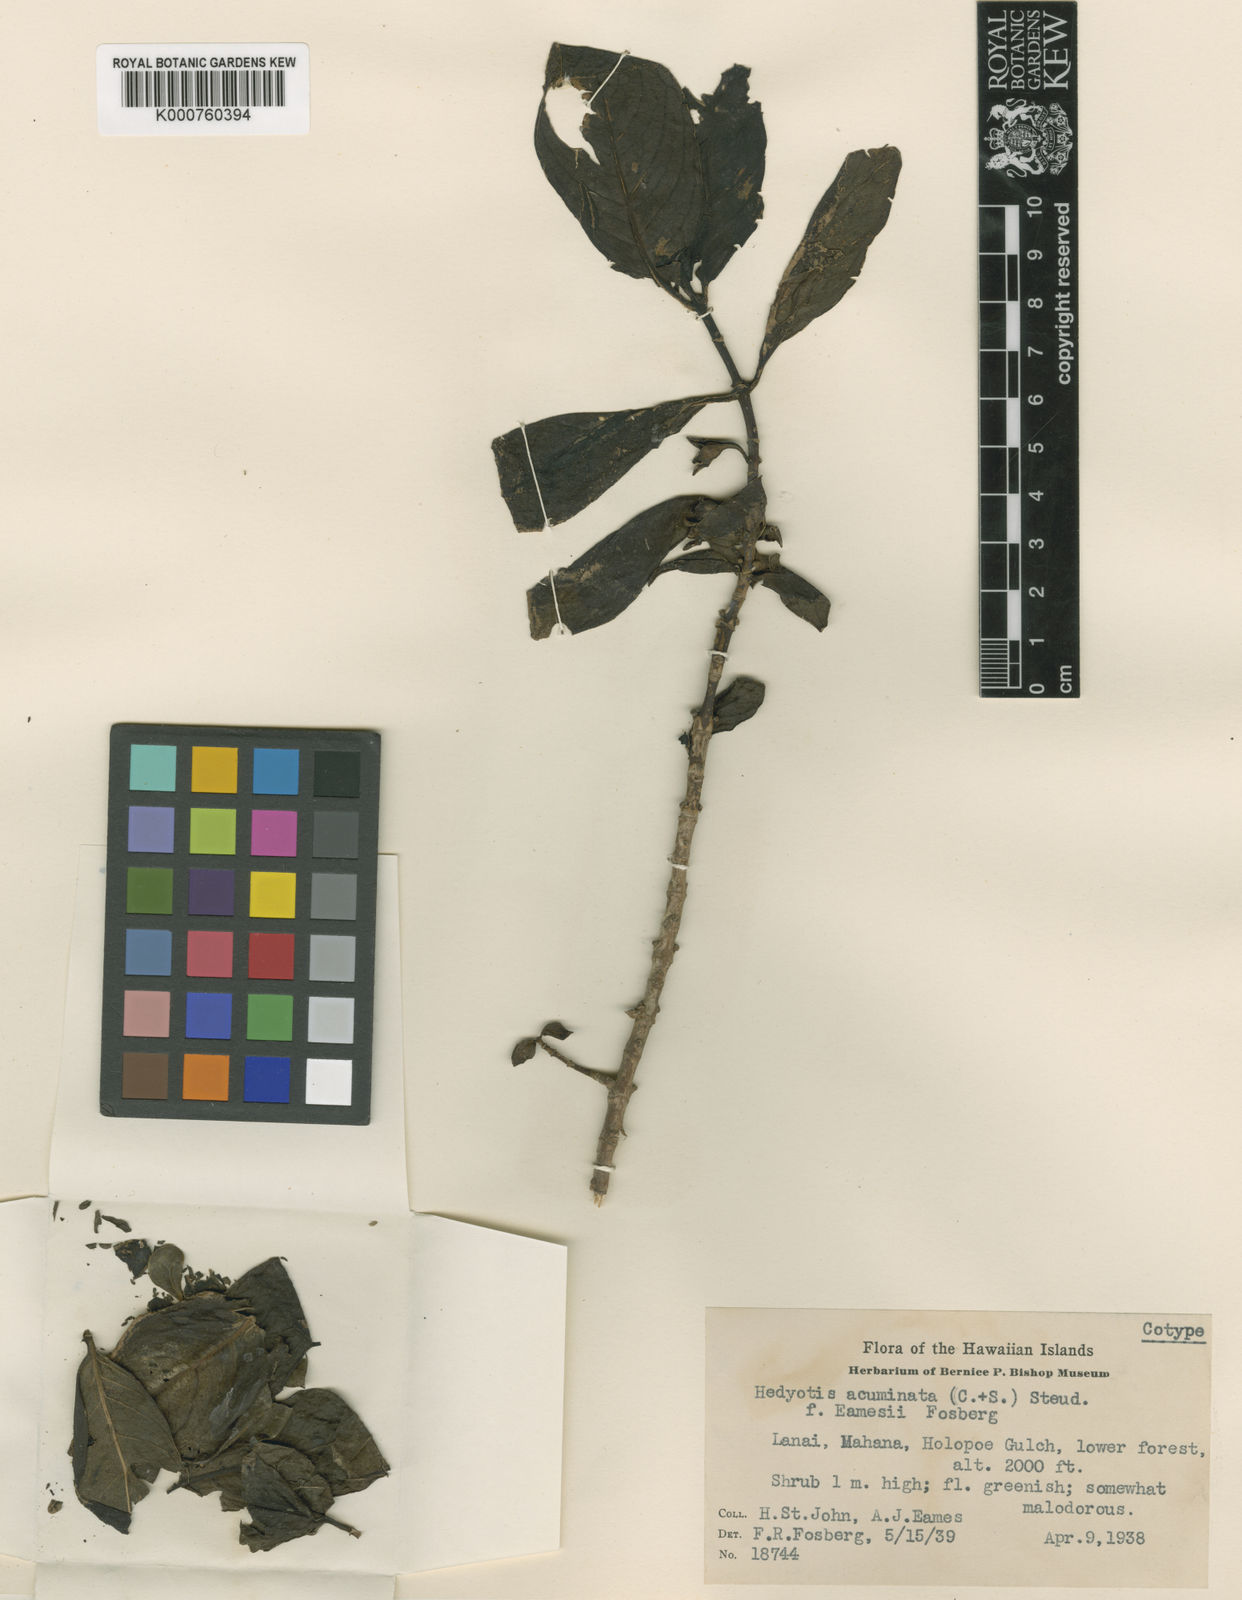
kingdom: Plantae
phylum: Tracheophyta
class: Magnoliopsida
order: Gentianales
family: Rubiaceae
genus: Kadua
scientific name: Kadua acuminata
